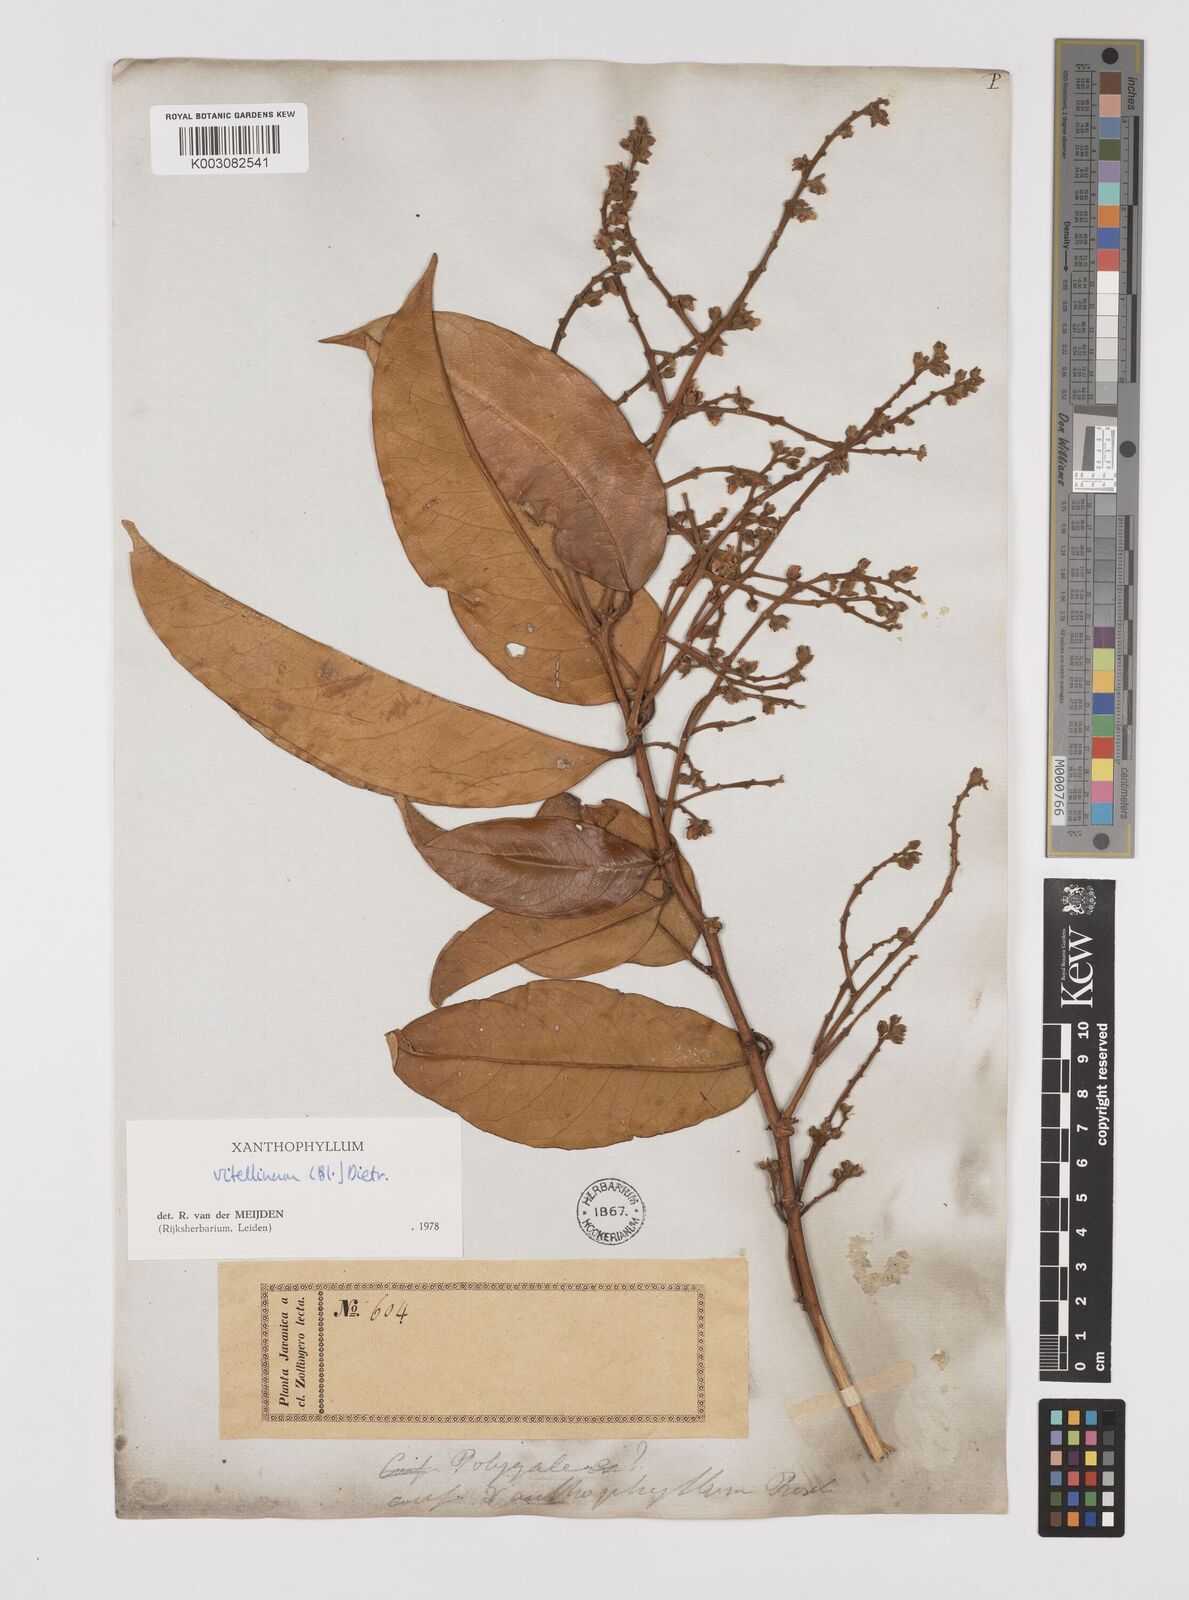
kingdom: Plantae
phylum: Tracheophyta
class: Magnoliopsida
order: Fabales
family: Polygalaceae
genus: Xanthophyllum
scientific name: Xanthophyllum vitellinum
